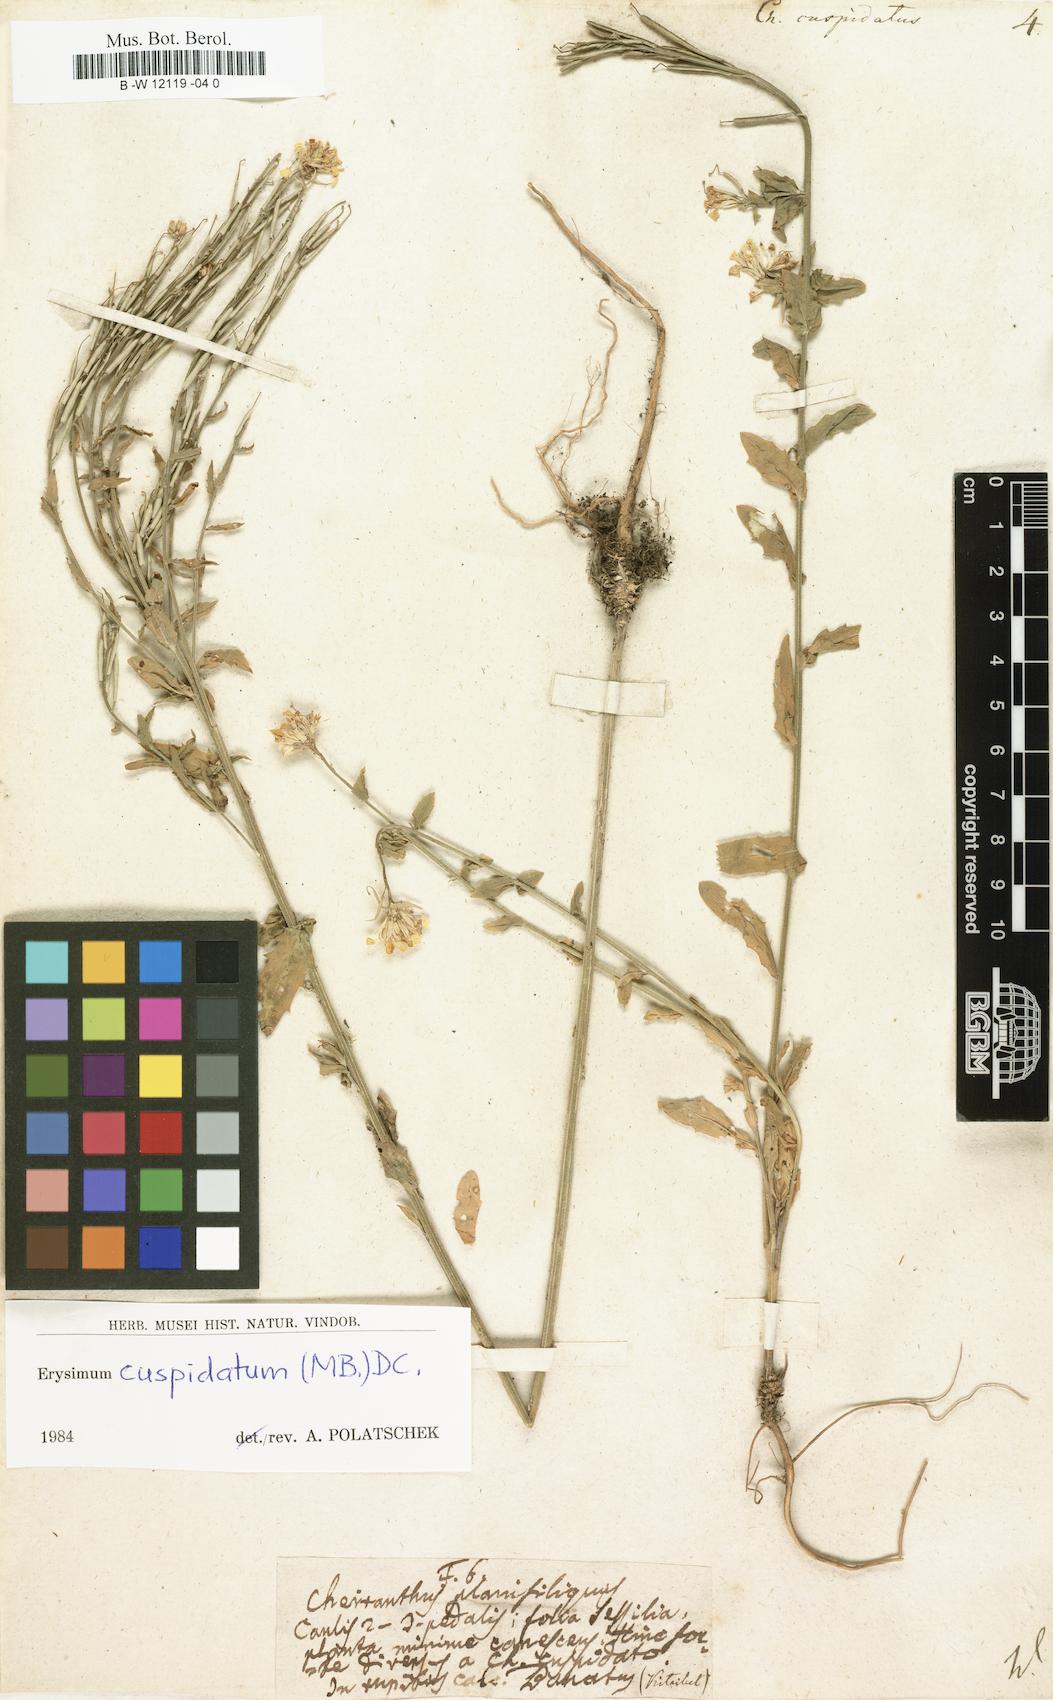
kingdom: Plantae
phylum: Tracheophyta
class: Magnoliopsida
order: Brassicales
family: Brassicaceae
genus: Erysimum
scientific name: Erysimum cuspidatum
